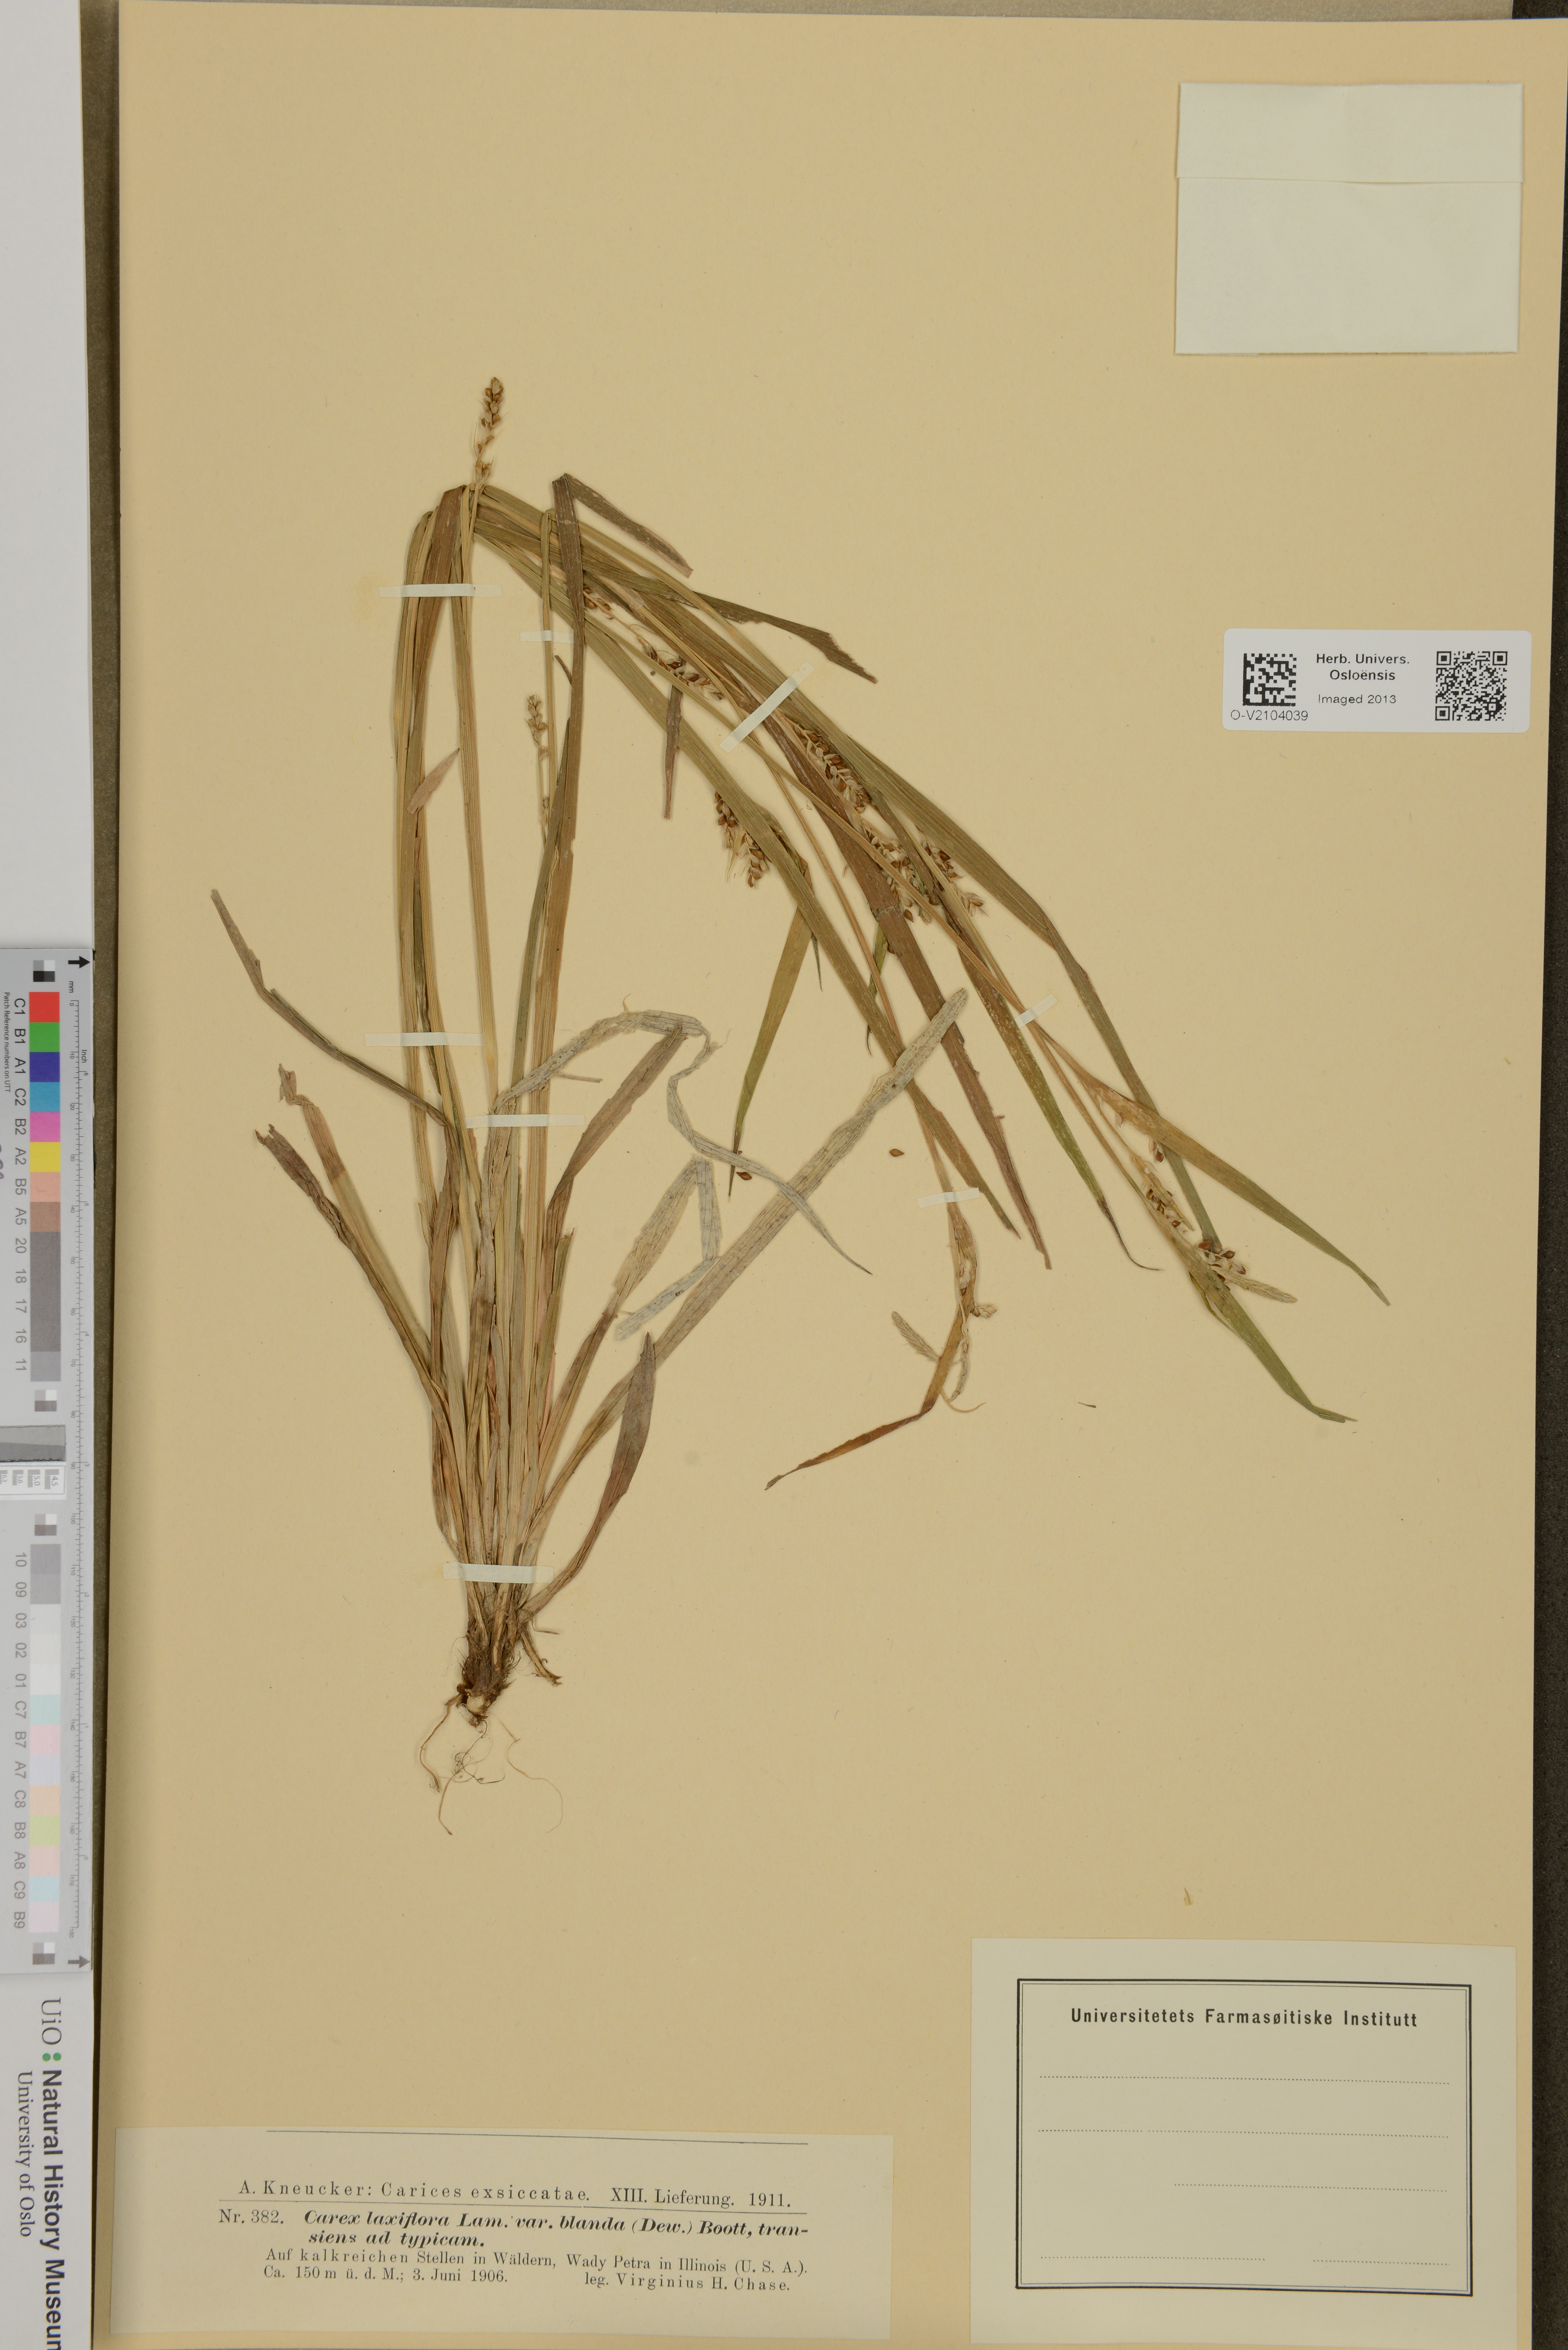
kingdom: Plantae
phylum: Tracheophyta
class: Liliopsida
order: Poales
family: Cyperaceae
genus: Carex
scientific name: Carex laxiflora
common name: Beech wood sedge
